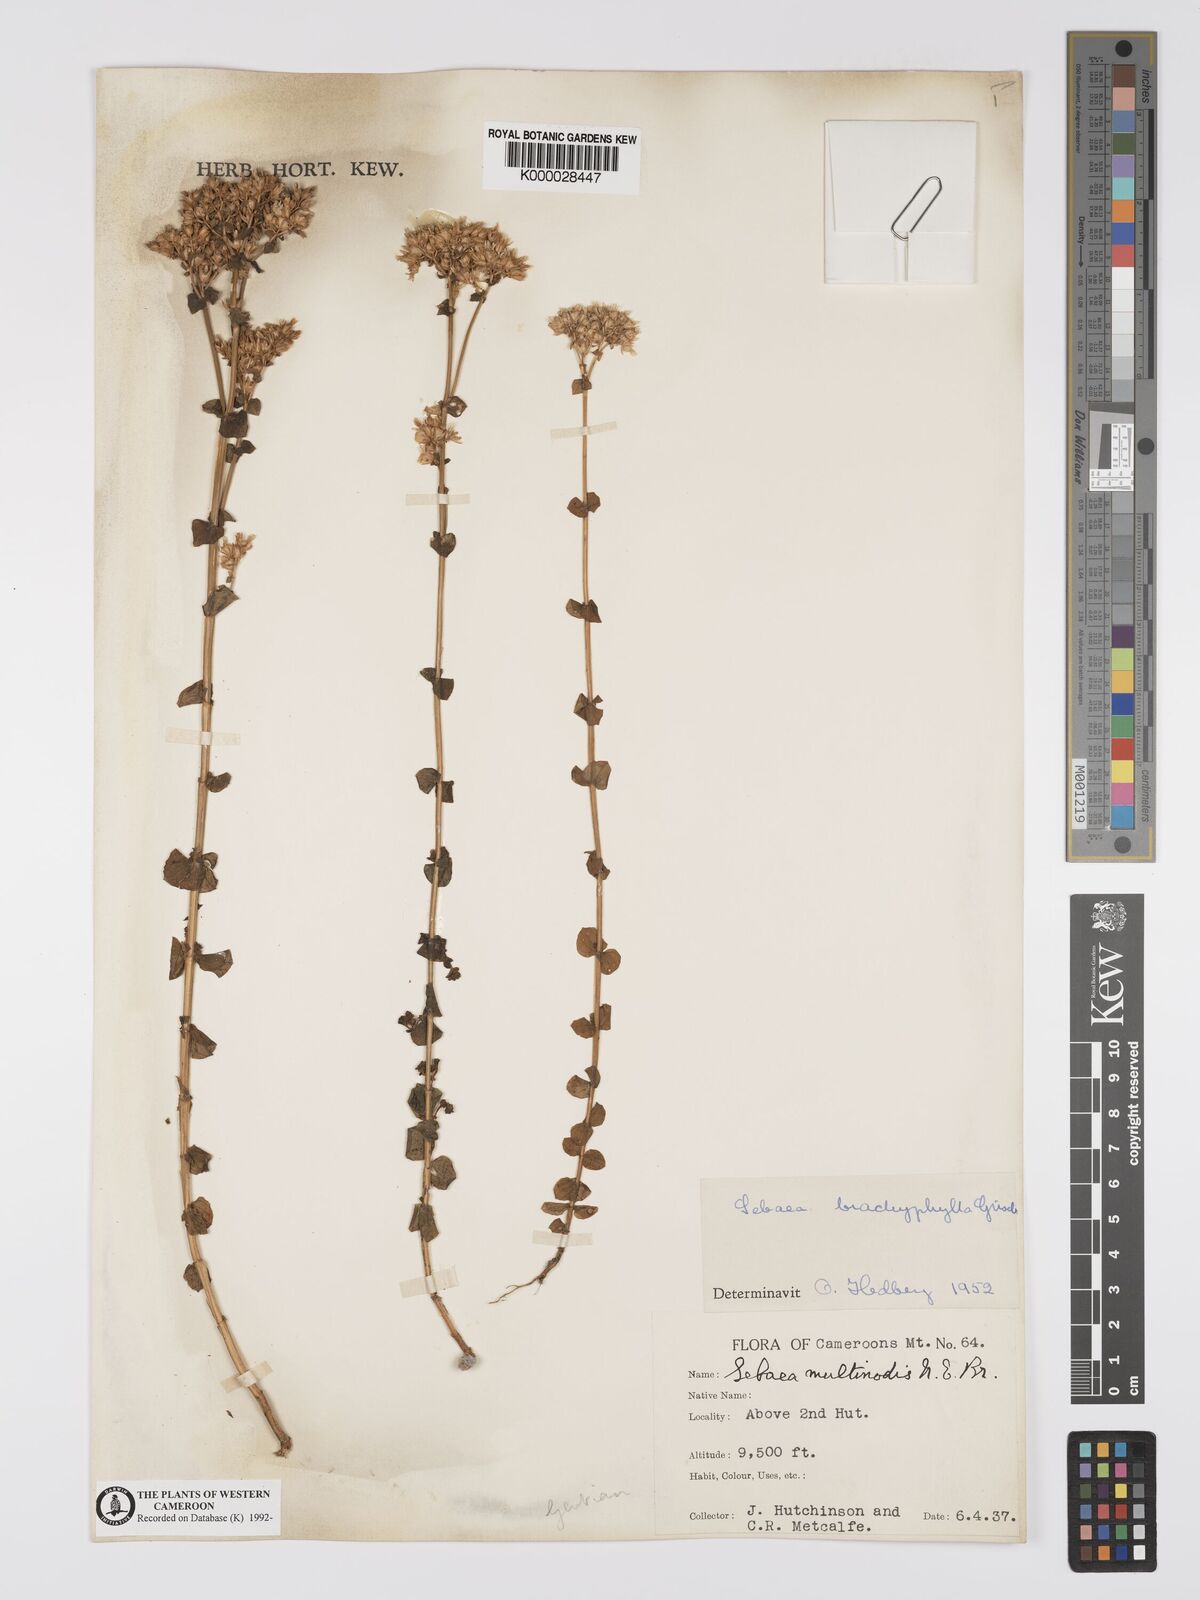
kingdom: Plantae
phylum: Tracheophyta
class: Magnoliopsida
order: Gentianales
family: Gentianaceae
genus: Sebaea
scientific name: Sebaea brachyphylla
